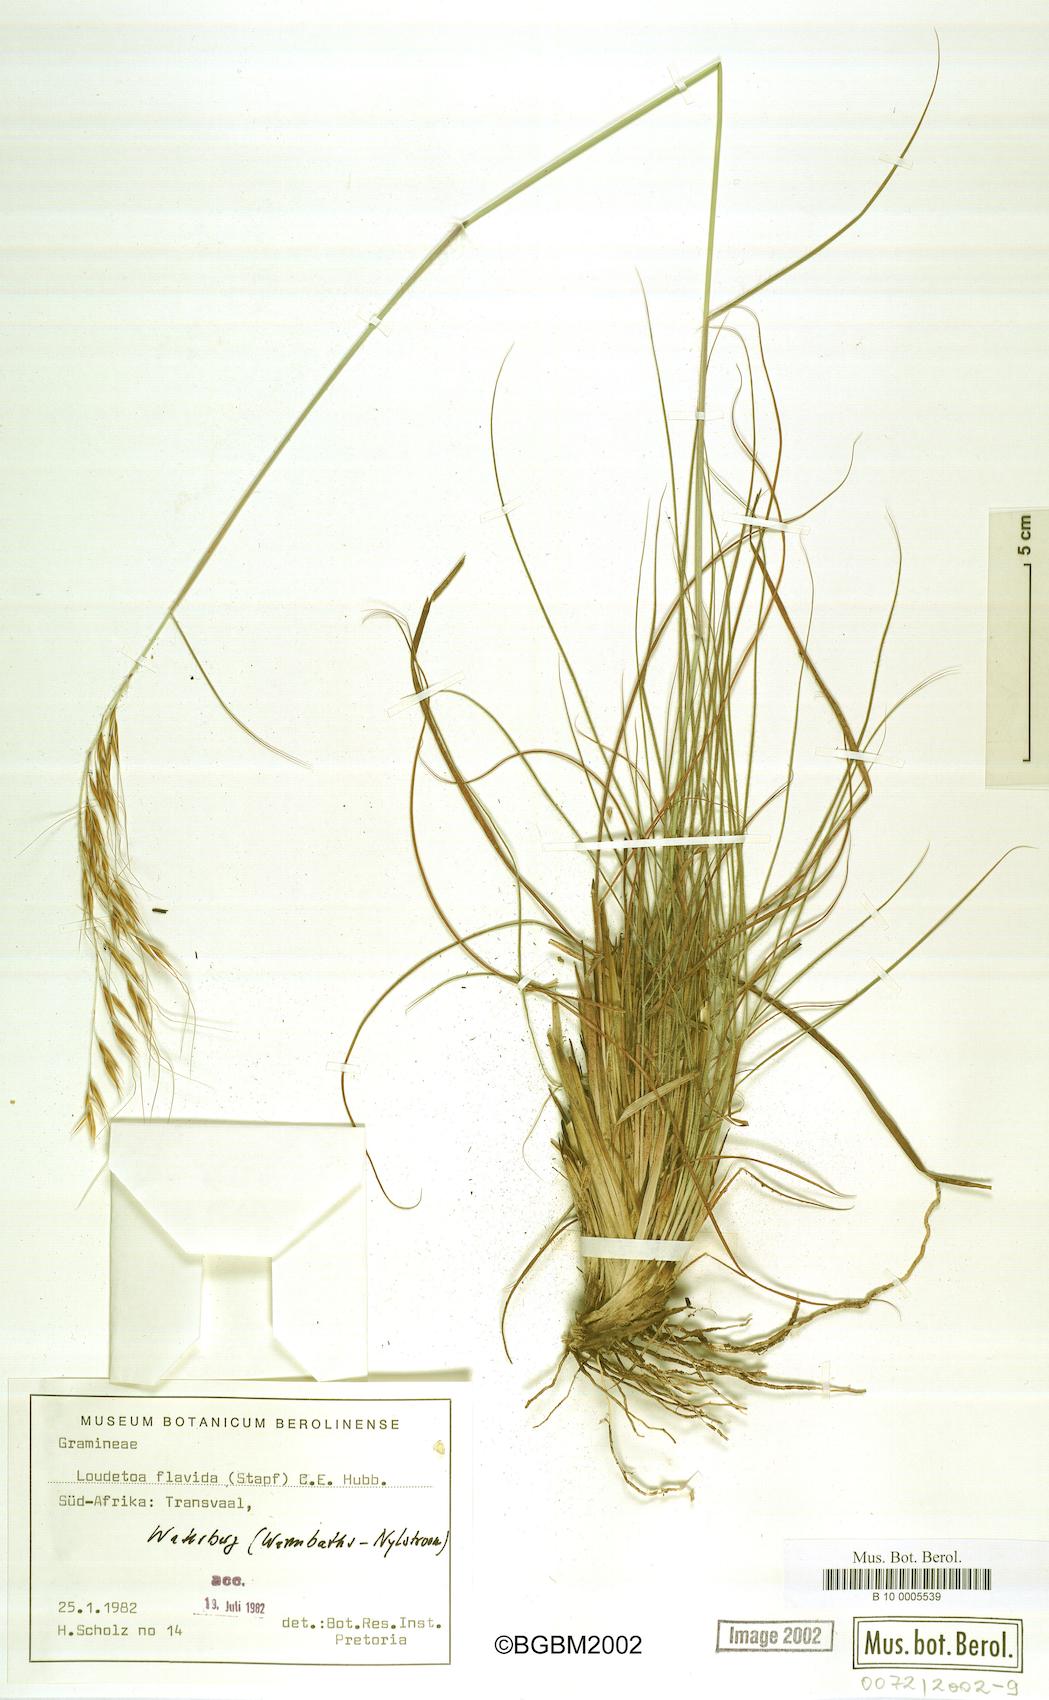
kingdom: Plantae
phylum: Tracheophyta
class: Liliopsida
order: Poales
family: Poaceae
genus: Loudetia
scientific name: Loudetia flavida
